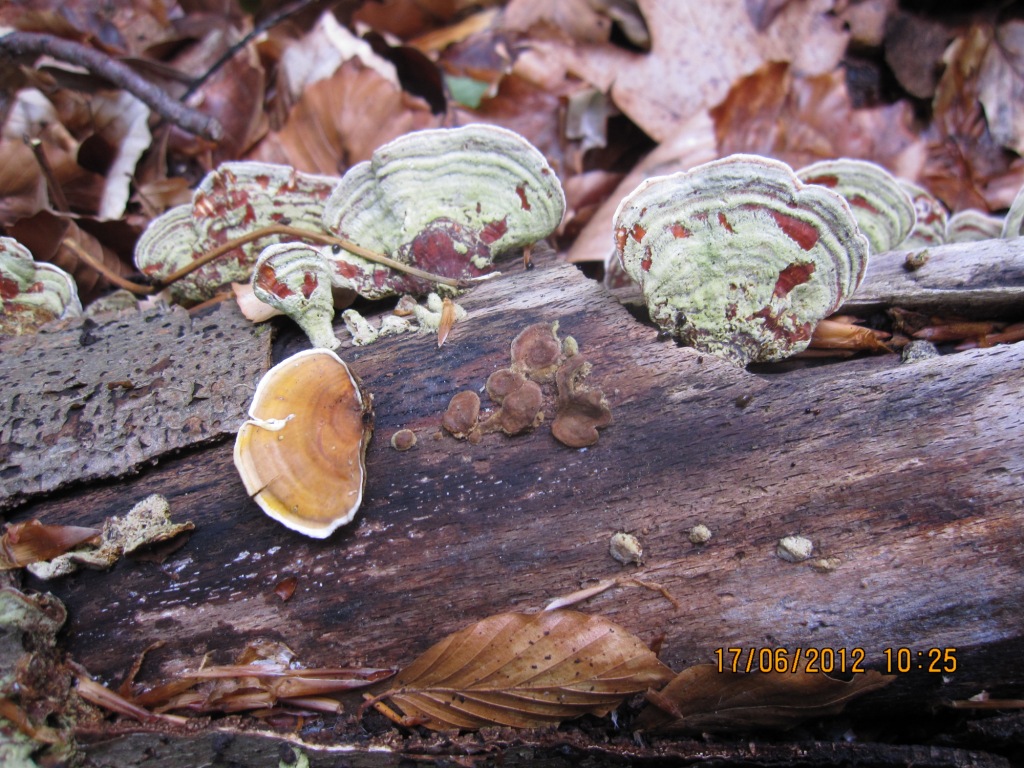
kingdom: Fungi
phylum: Basidiomycota
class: Agaricomycetes
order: Russulales
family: Stereaceae
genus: Stereum
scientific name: Stereum subtomentosum
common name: smuk lædersvamp
